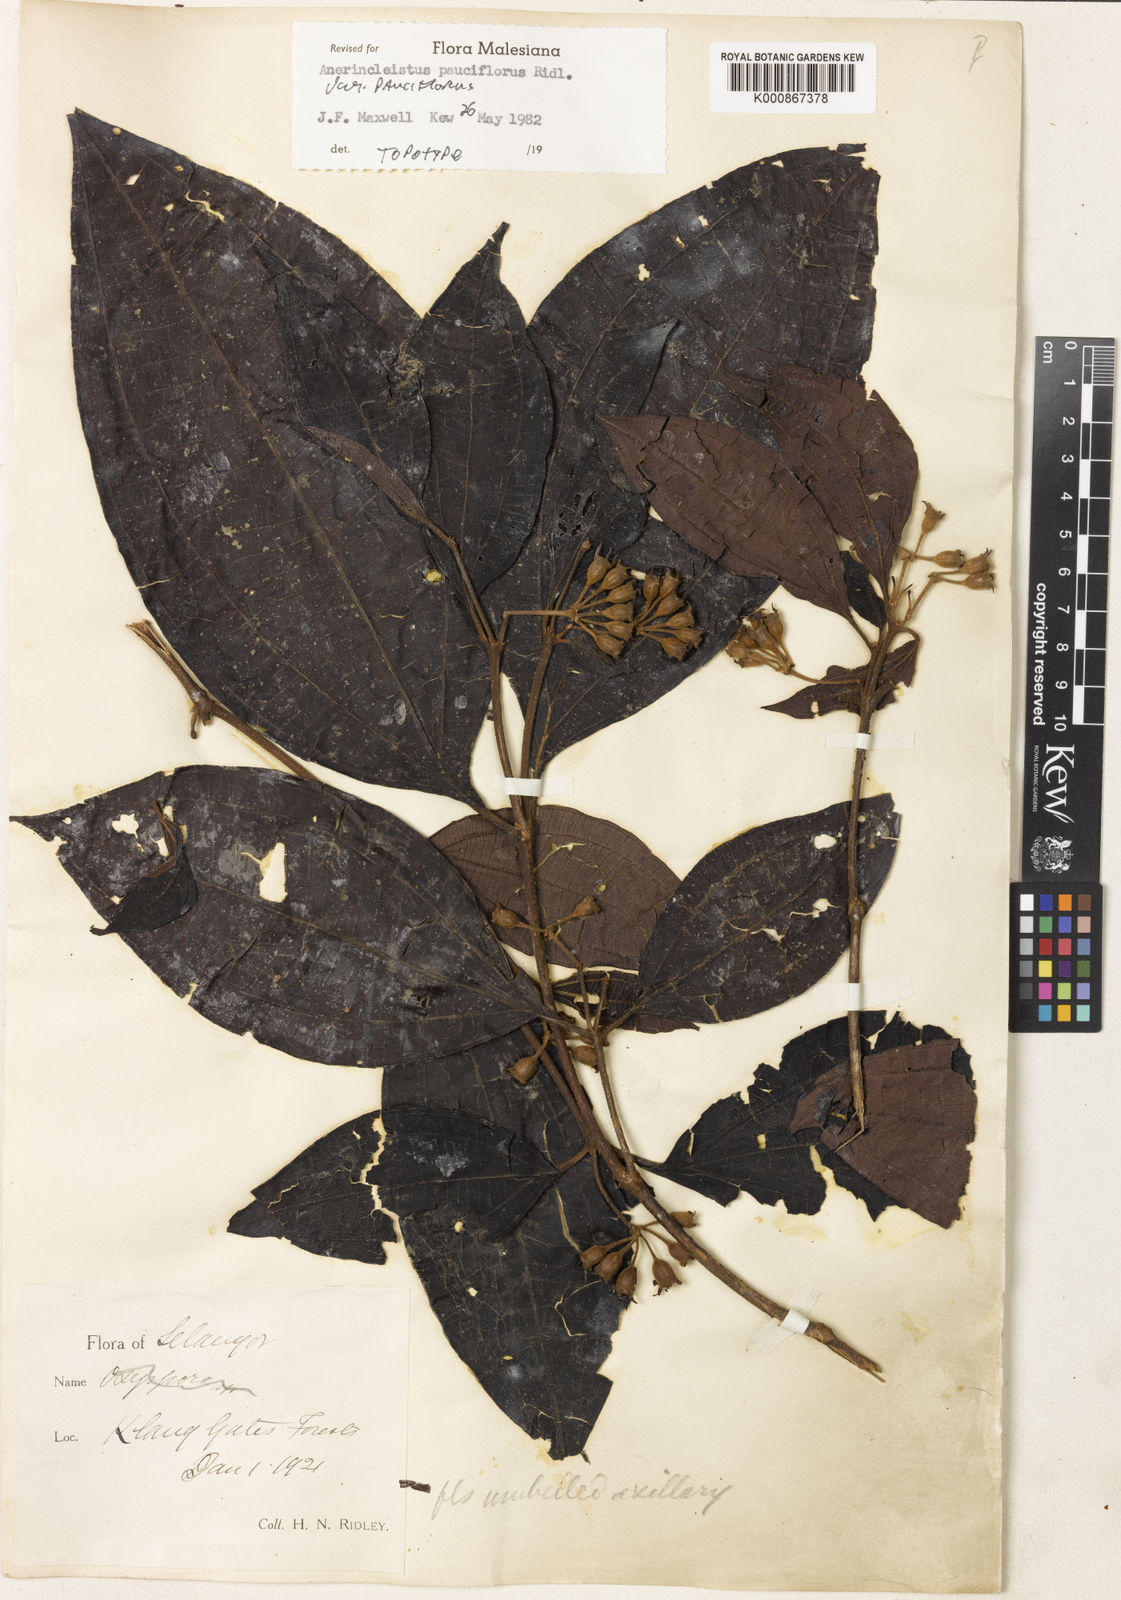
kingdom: Plantae
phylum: Tracheophyta
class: Magnoliopsida
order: Myrtales
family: Melastomataceae
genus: Anerincleistus
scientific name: Anerincleistus pauciflorus
